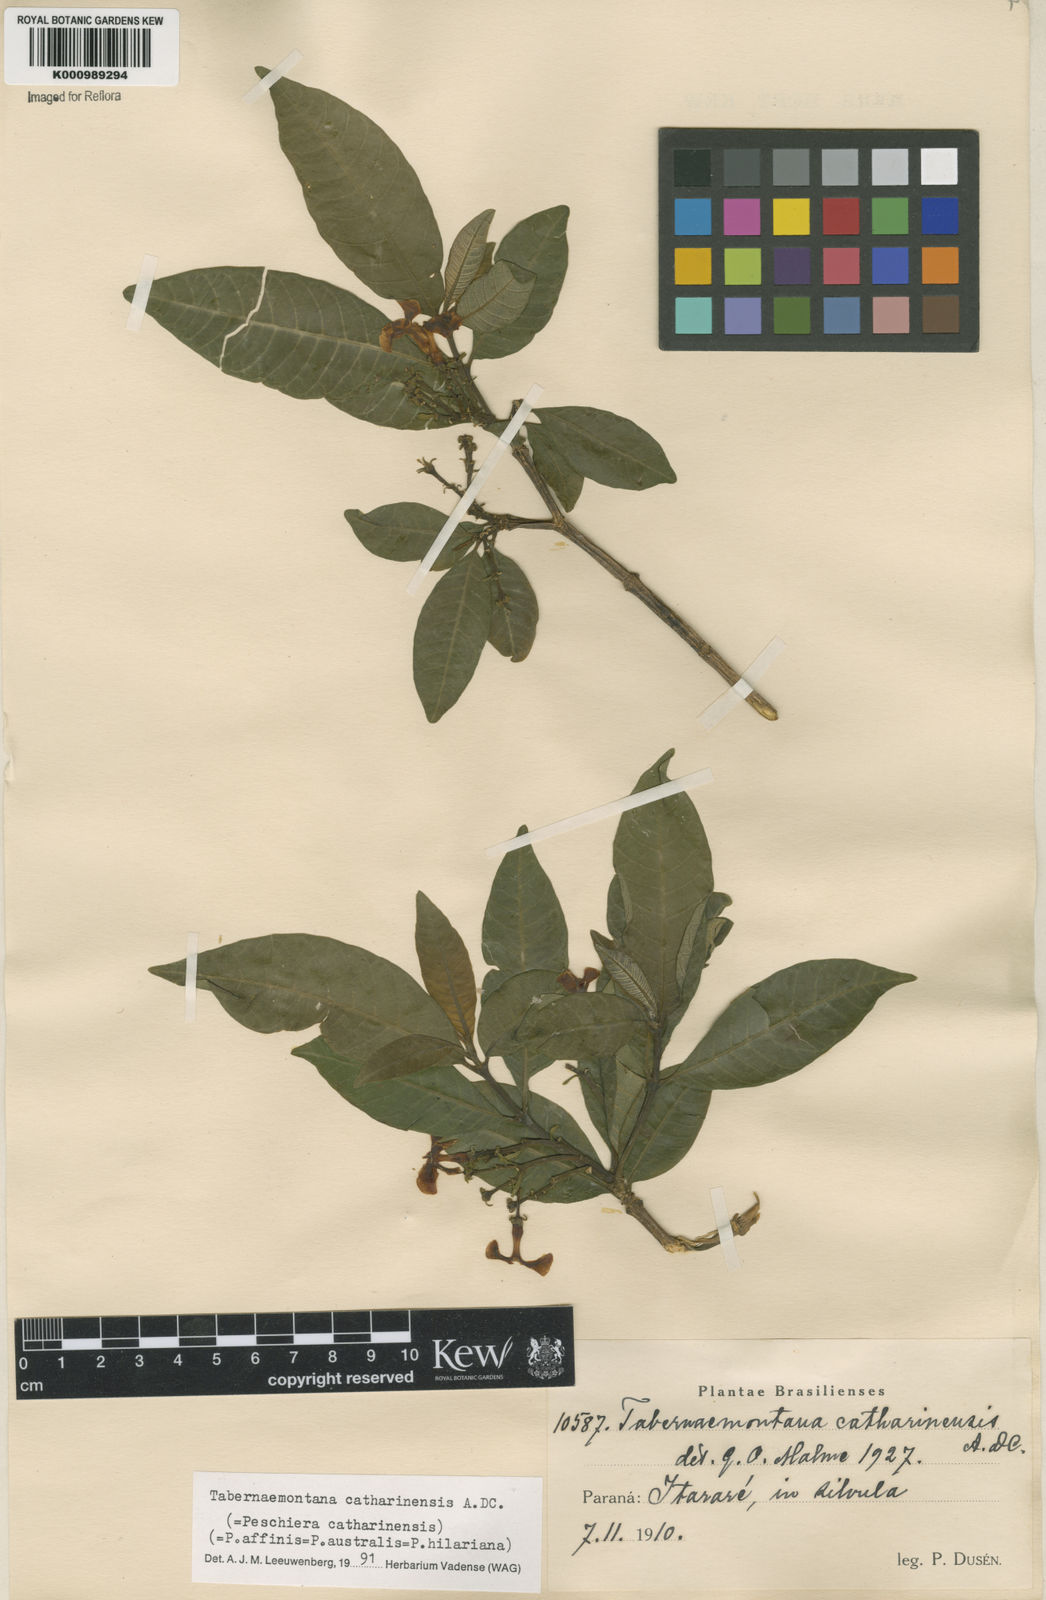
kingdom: Plantae
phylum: Tracheophyta
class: Magnoliopsida
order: Gentianales
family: Apocynaceae
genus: Tabernaemontana
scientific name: Tabernaemontana catharinensis
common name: Pinwheel-flower
